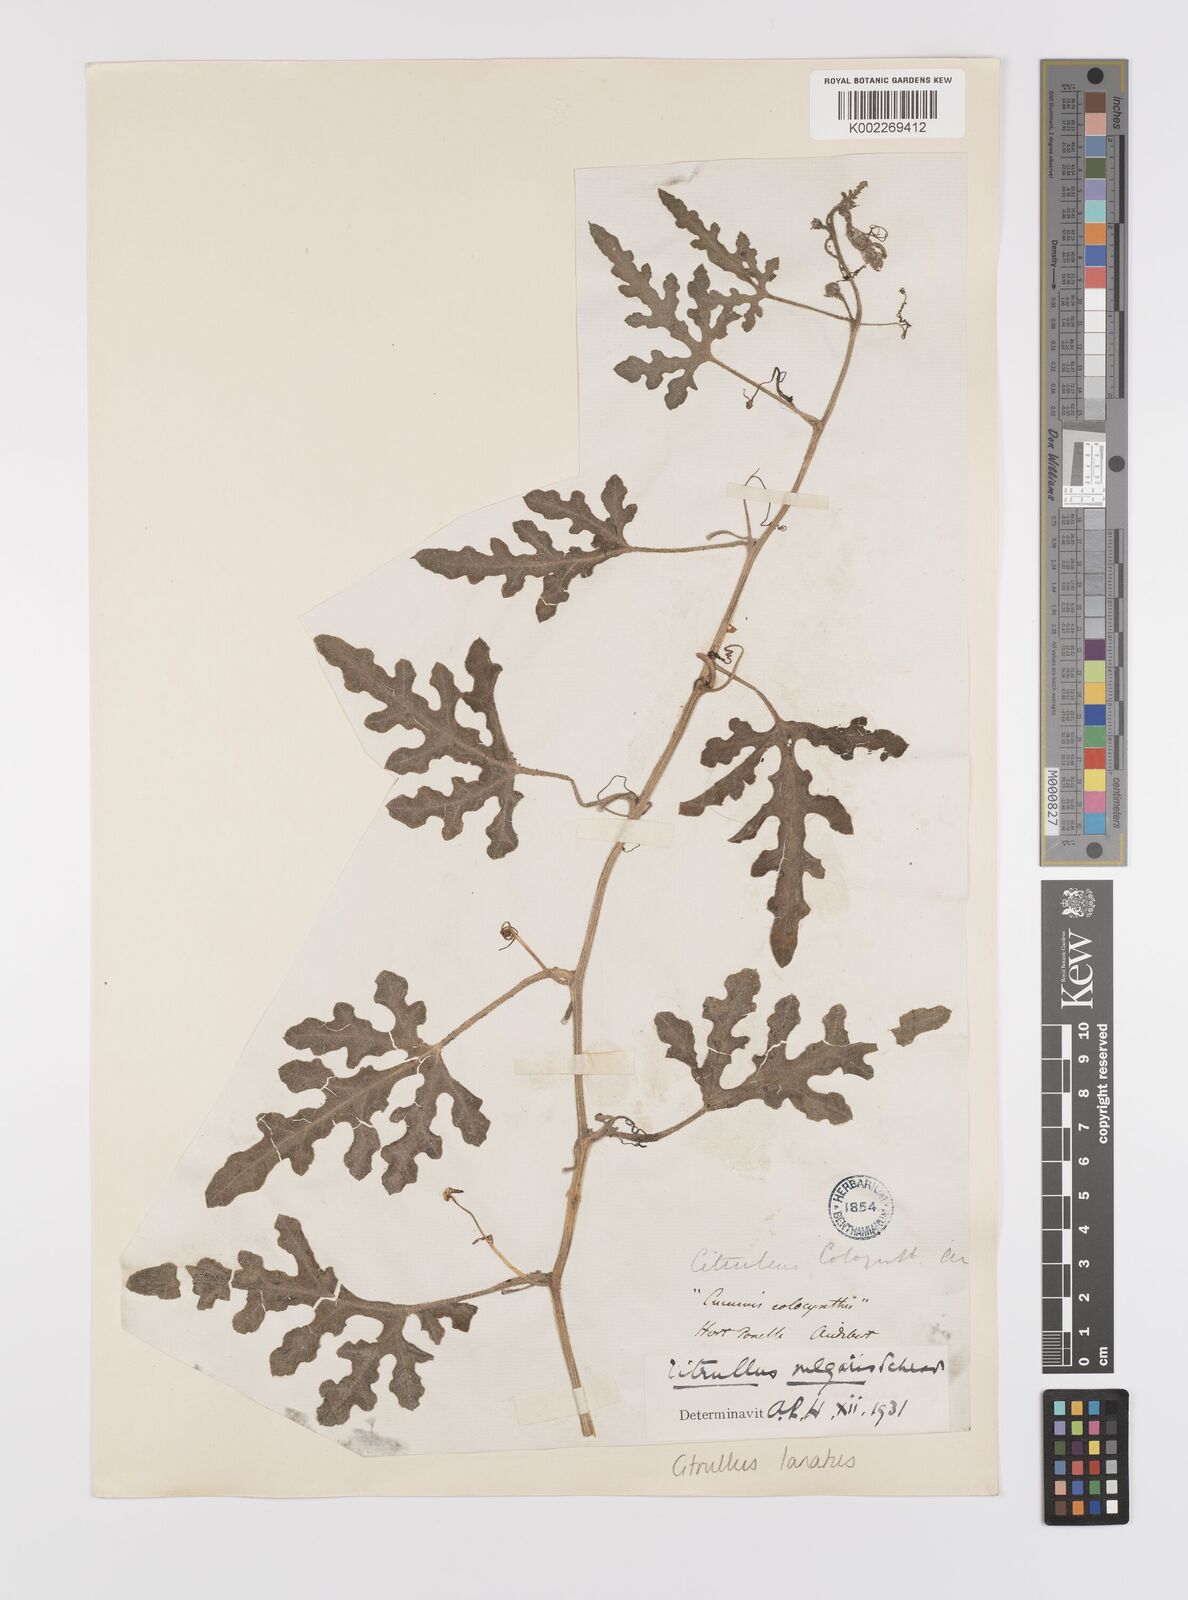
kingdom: Plantae
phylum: Tracheophyta
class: Magnoliopsida
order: Cucurbitales
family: Cucurbitaceae
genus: Citrullus
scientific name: Citrullus lanatus
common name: Watermelon
